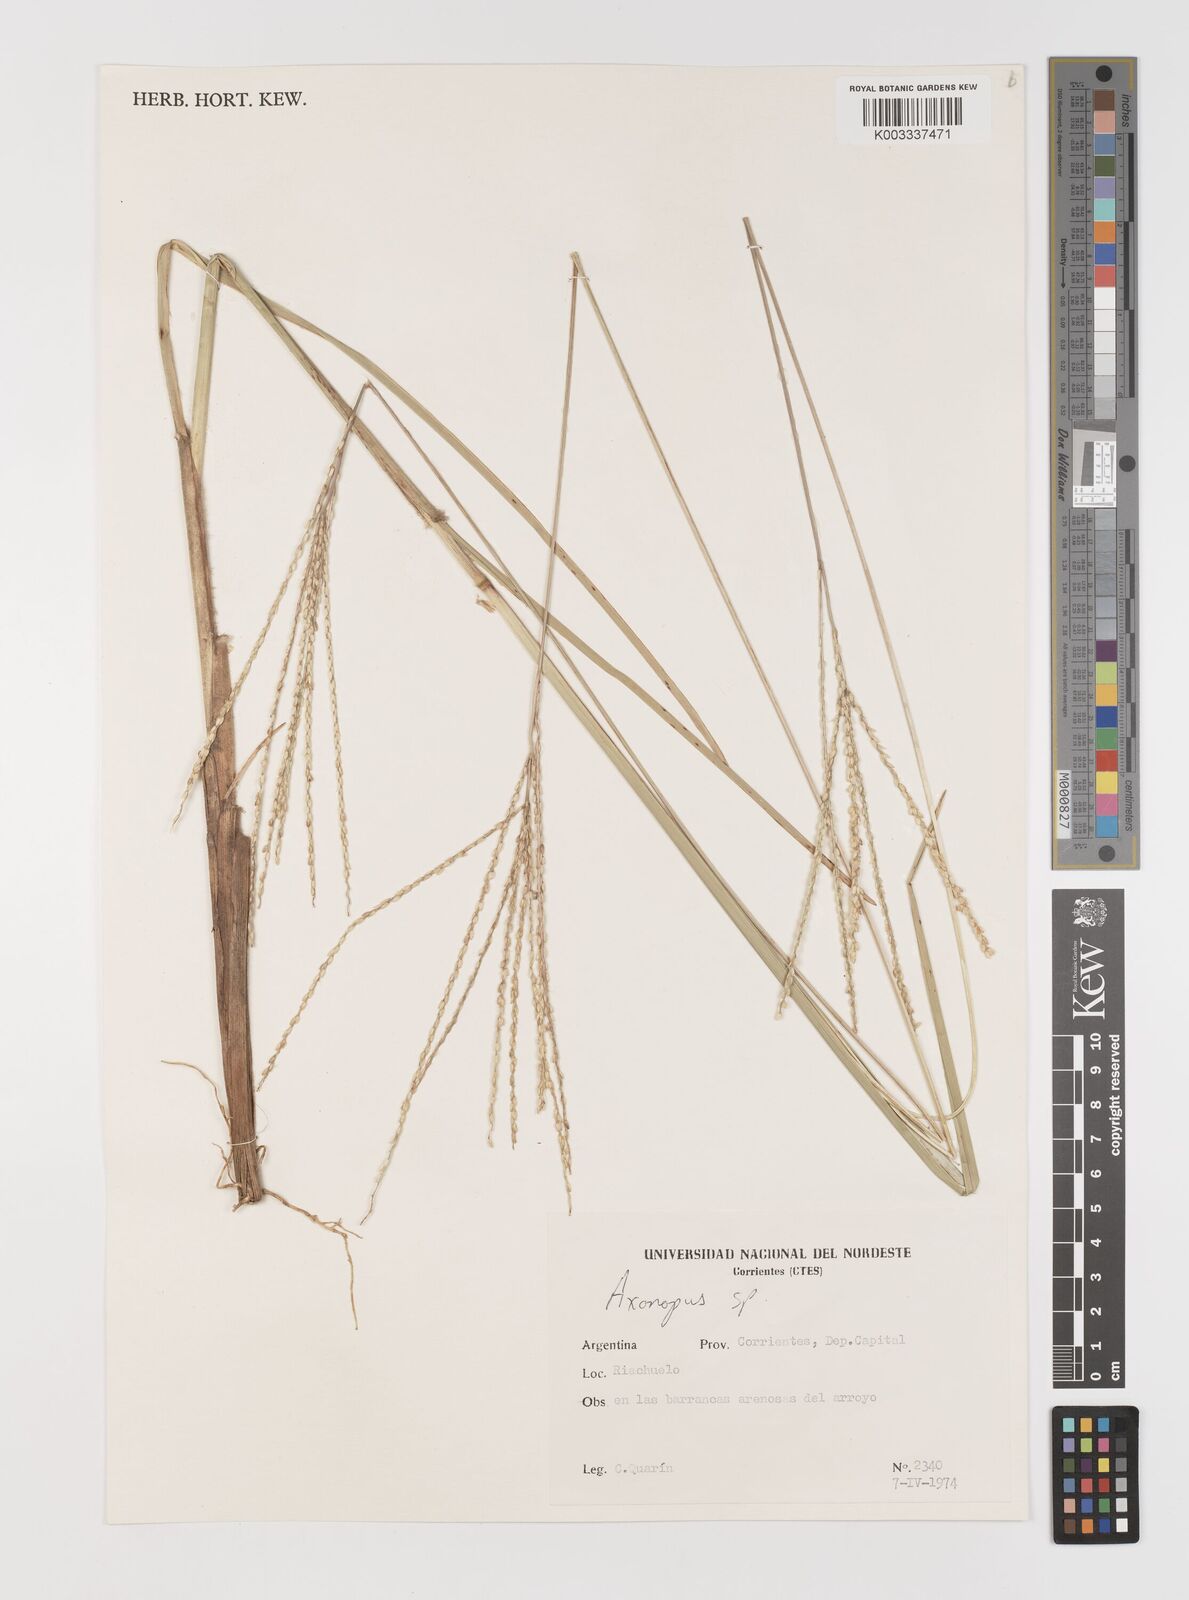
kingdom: Plantae
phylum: Tracheophyta
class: Liliopsida
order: Poales
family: Poaceae
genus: Axonopus
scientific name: Axonopus
